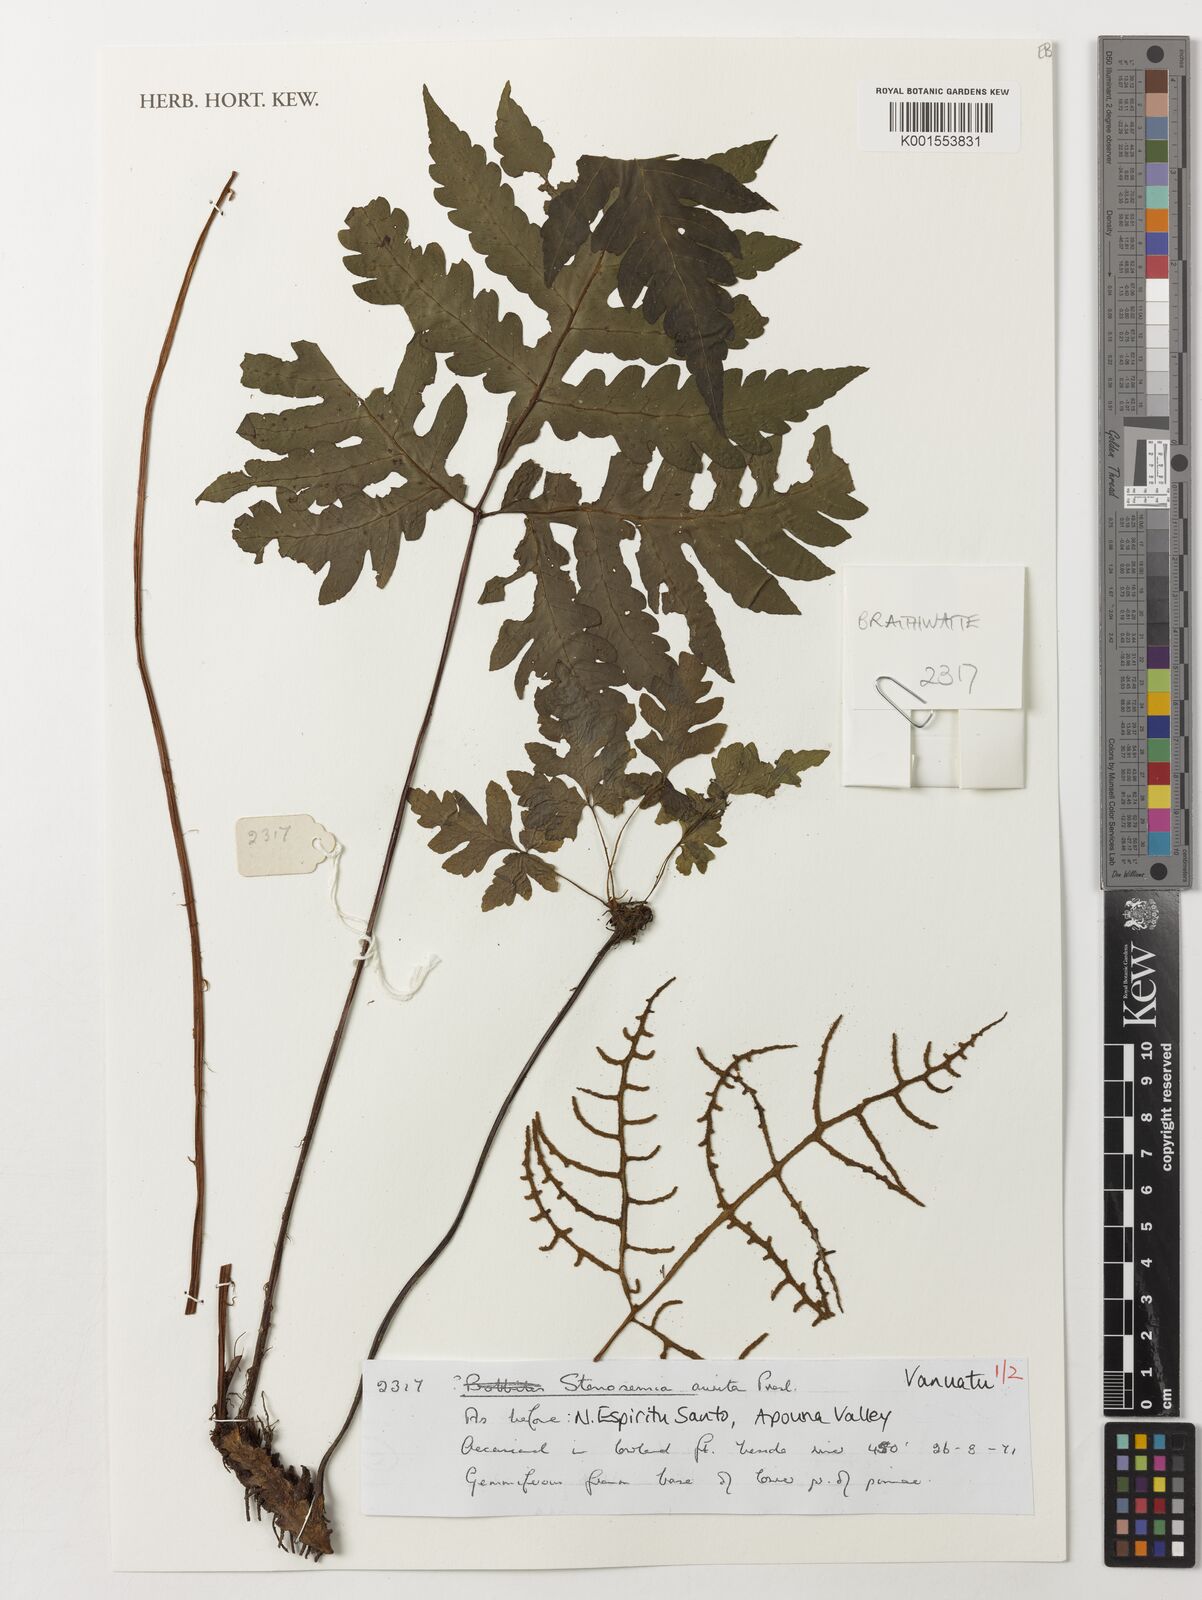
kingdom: Plantae
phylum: Tracheophyta
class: Polypodiopsida
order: Polypodiales
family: Tectariaceae
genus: Tectaria
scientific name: Tectaria aurita
